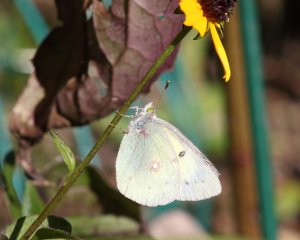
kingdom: Animalia
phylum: Arthropoda
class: Insecta
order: Lepidoptera
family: Pieridae
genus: Colias
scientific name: Colias philodice
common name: Clouded Sulphur
